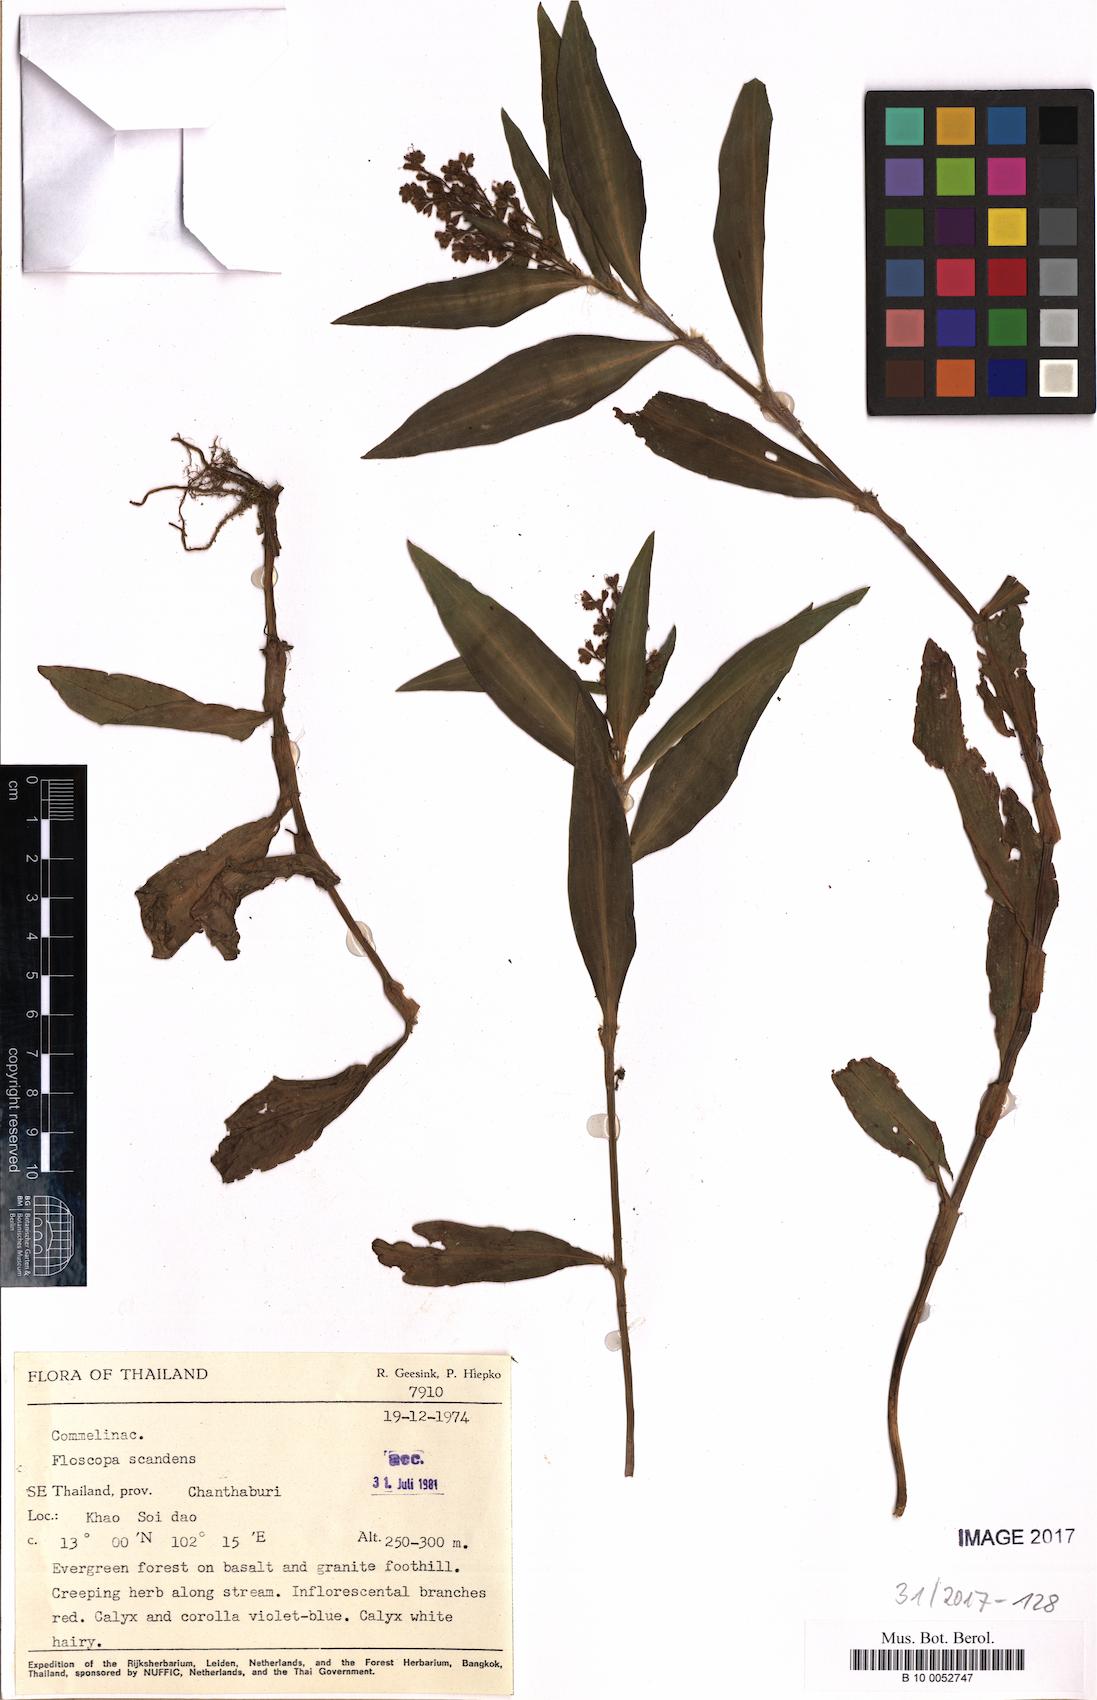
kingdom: Plantae
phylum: Tracheophyta
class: Liliopsida
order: Commelinales
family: Commelinaceae
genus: Floscopa
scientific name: Floscopa scandens
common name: Climbing flower cup
